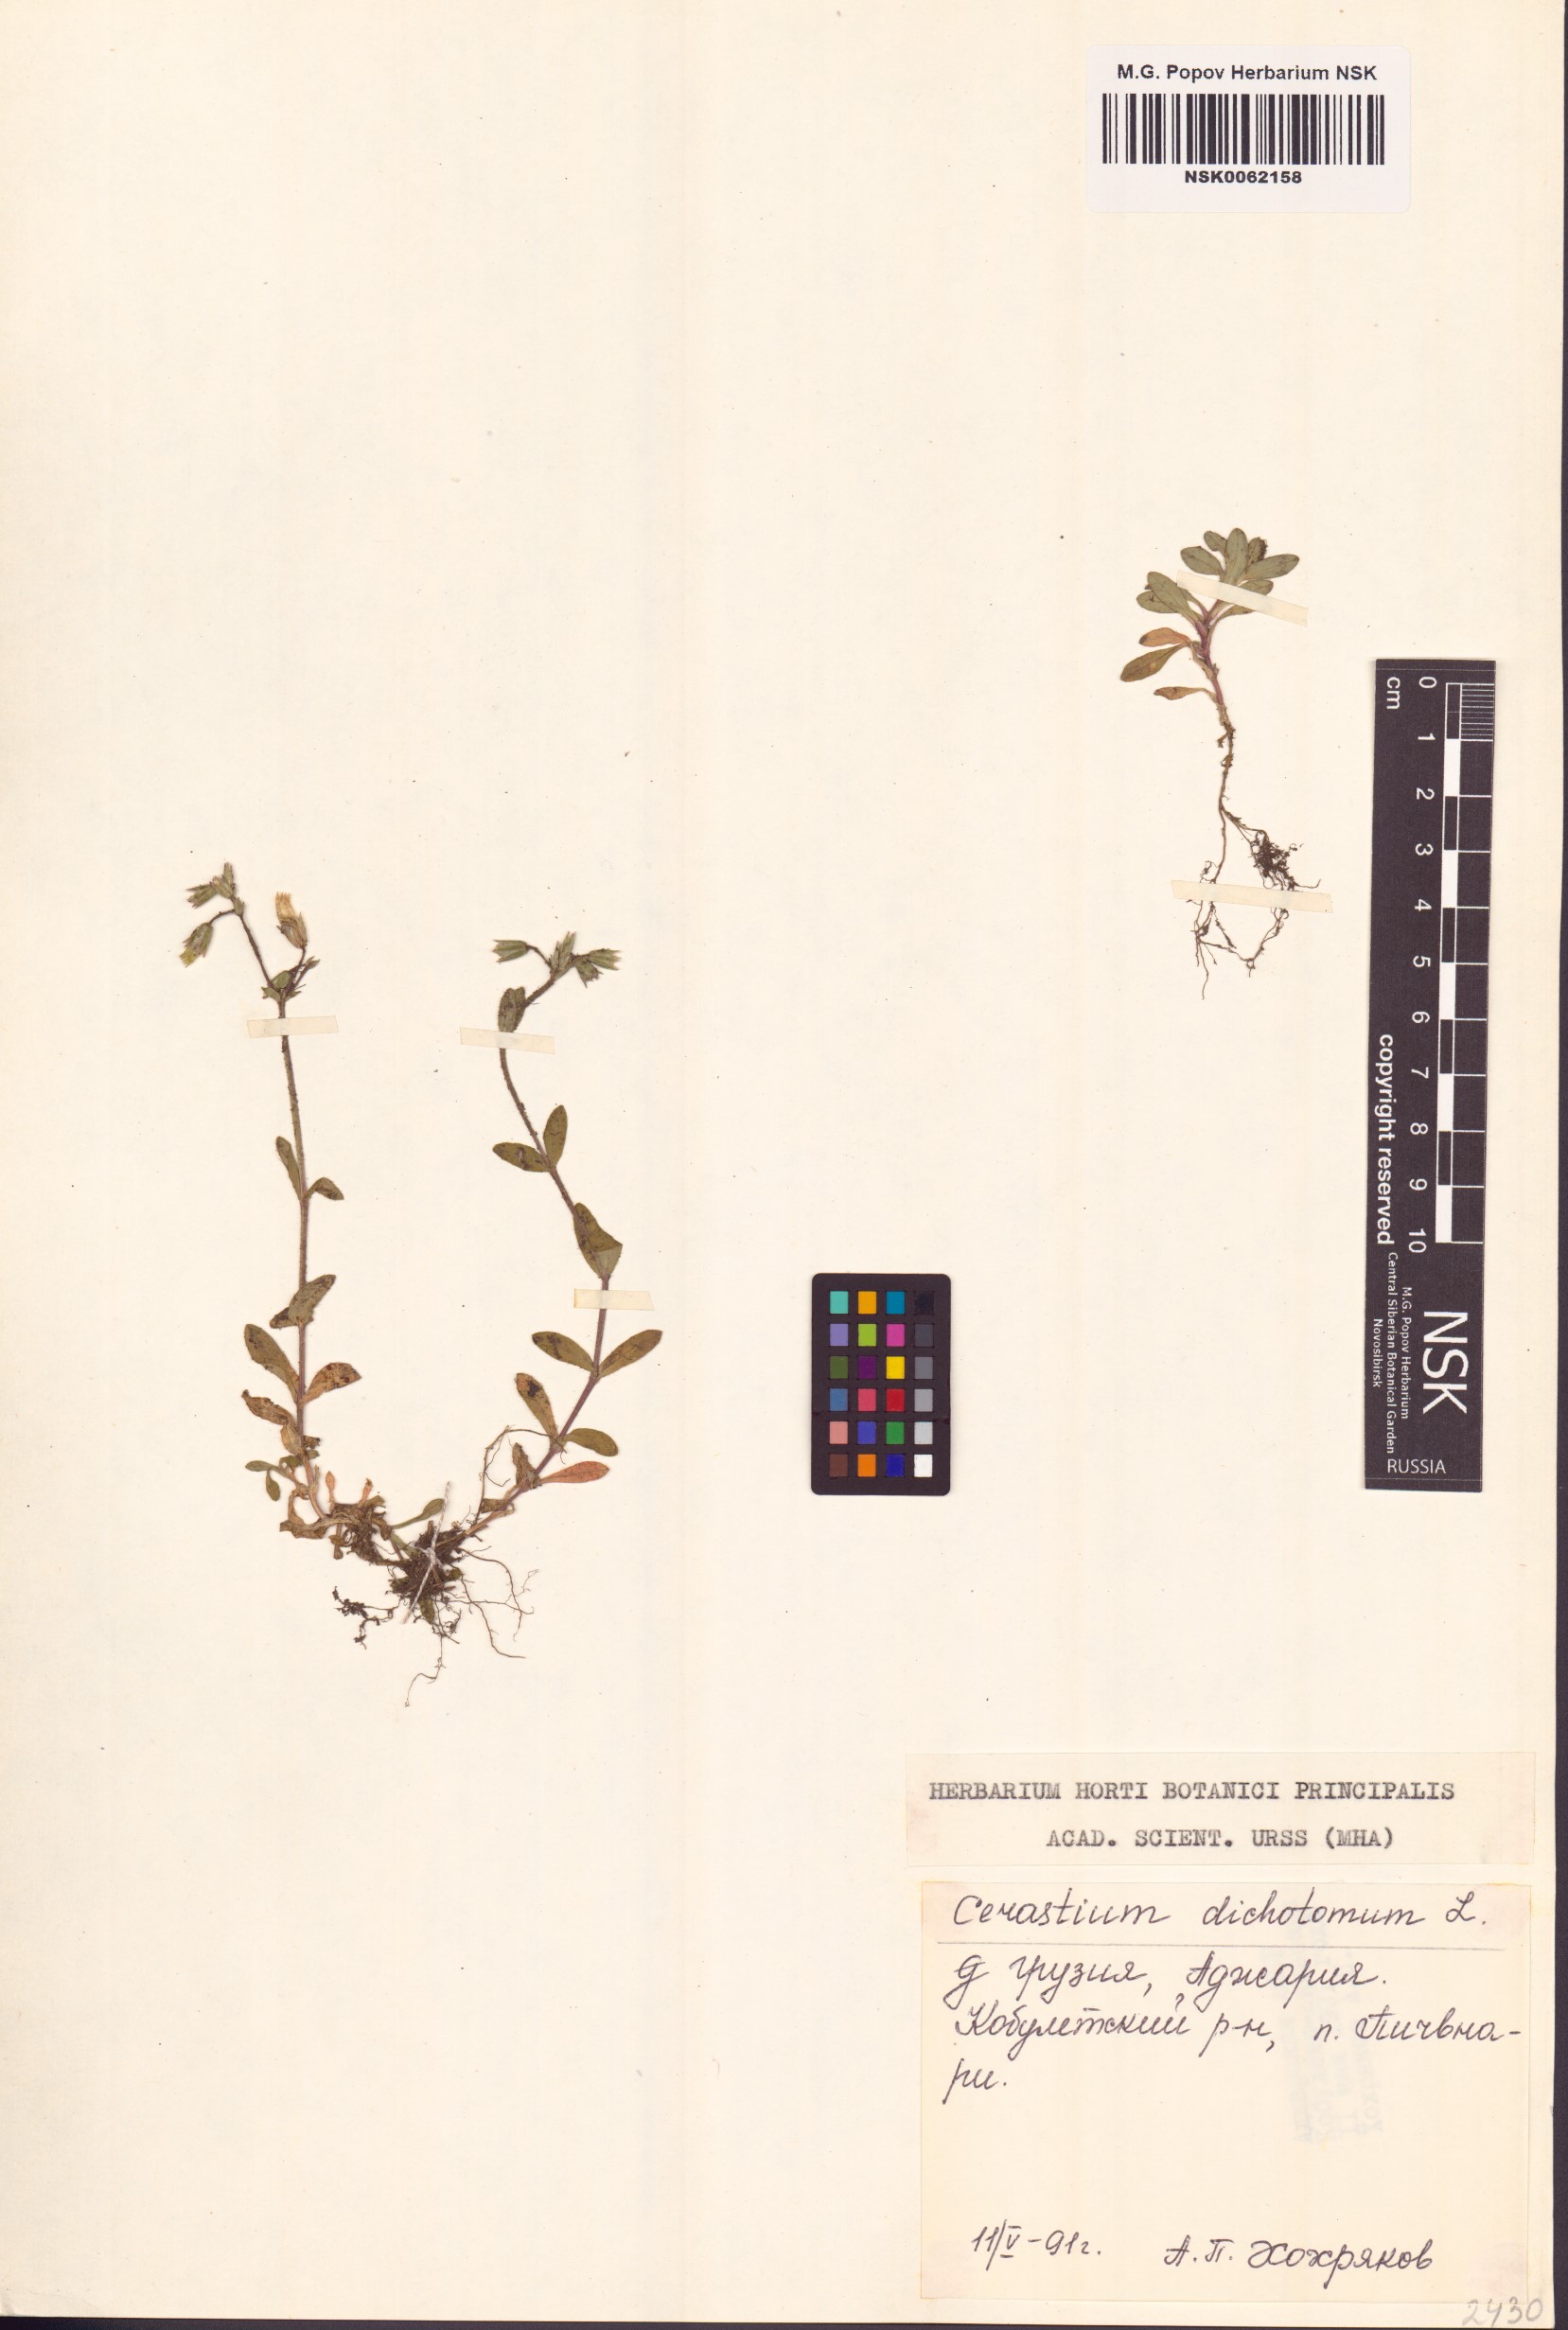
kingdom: Plantae
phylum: Tracheophyta
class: Magnoliopsida
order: Caryophyllales
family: Caryophyllaceae
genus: Cerastium
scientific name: Cerastium dichotomum
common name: Forked chickweed
